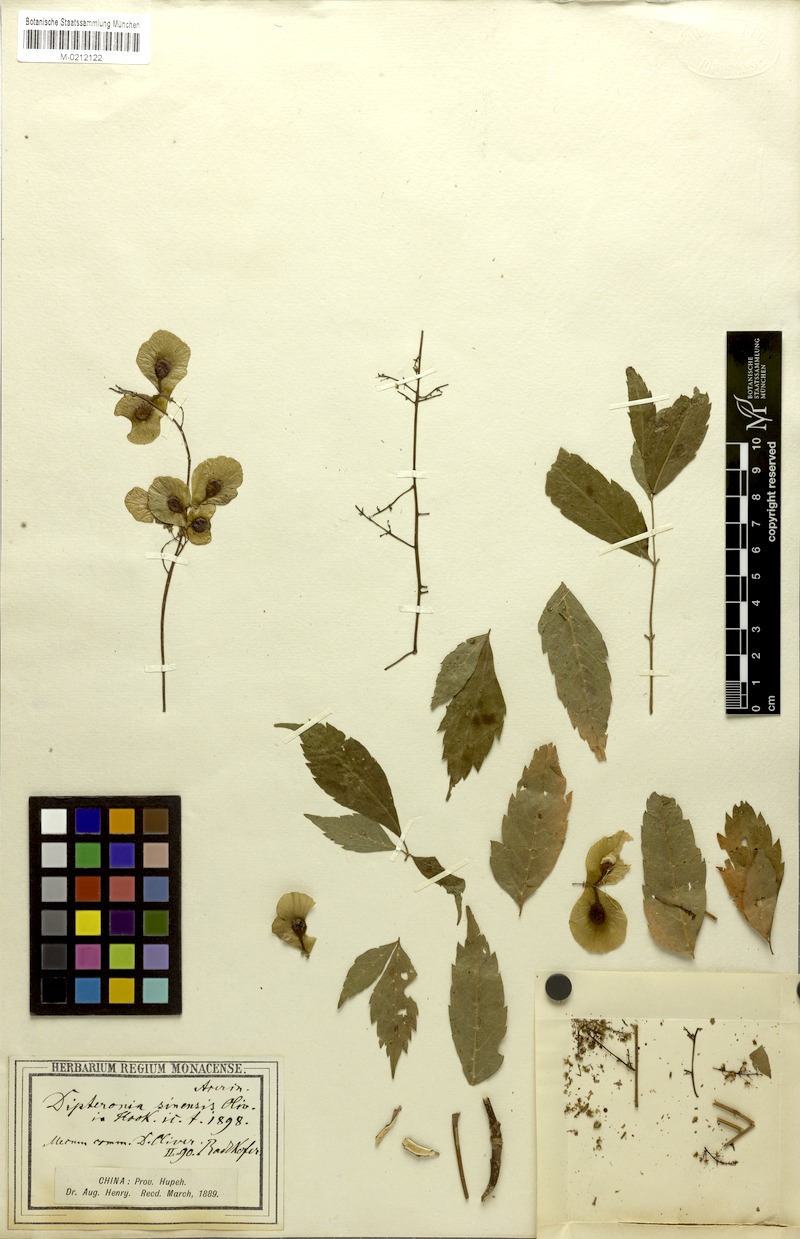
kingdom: Plantae
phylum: Tracheophyta
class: Magnoliopsida
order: Sapindales
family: Sapindaceae
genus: Dipteronia
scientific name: Dipteronia sinensis
